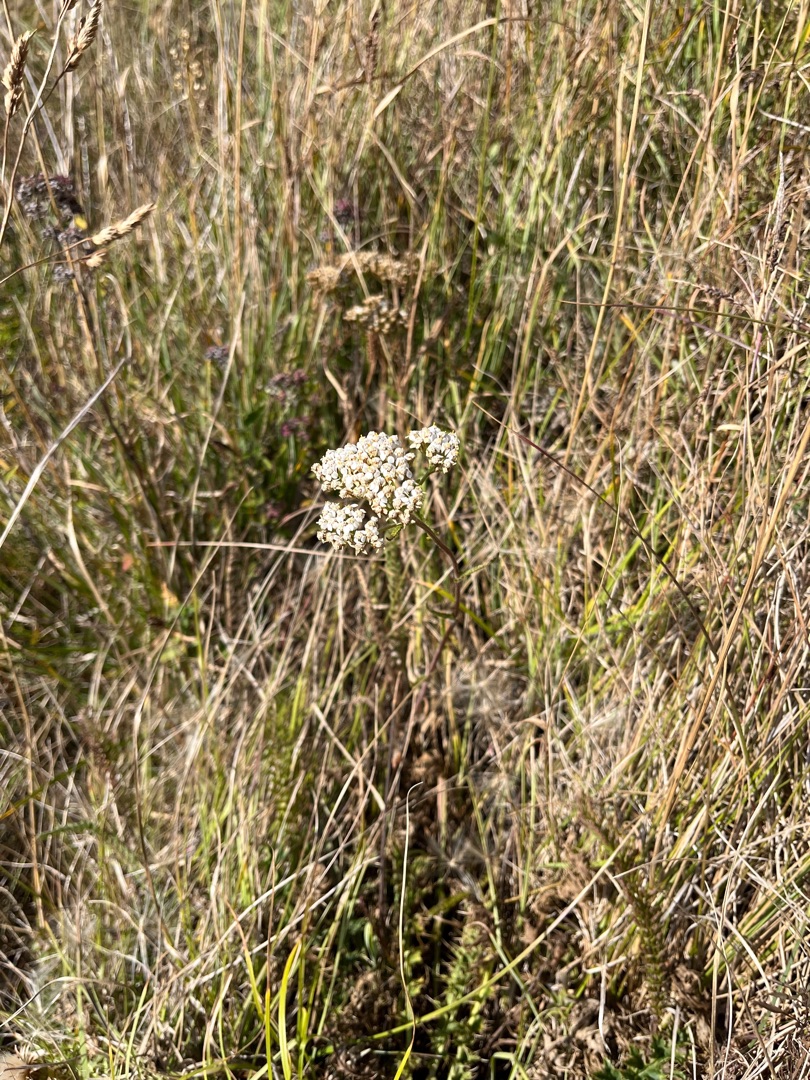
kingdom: Plantae
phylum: Tracheophyta
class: Magnoliopsida
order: Asterales
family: Asteraceae
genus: Achillea
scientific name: Achillea millefolium
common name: Almindelig røllike
